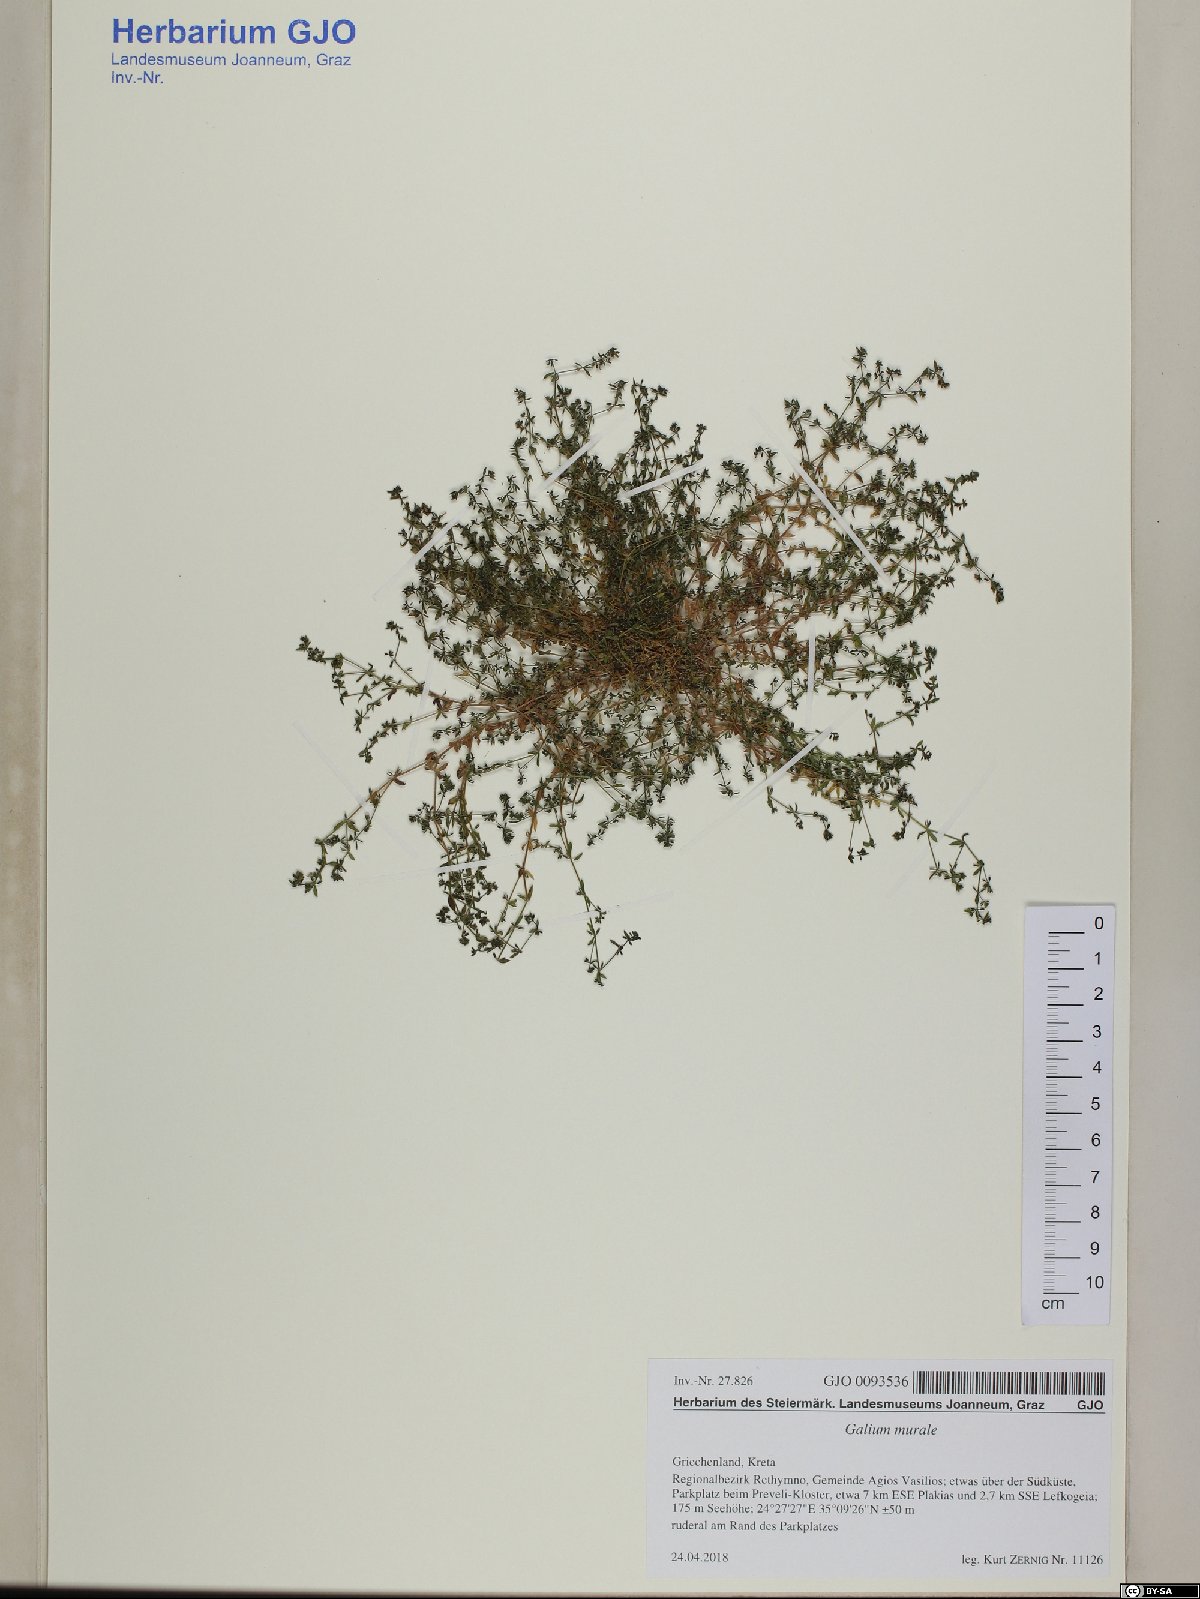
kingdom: Plantae
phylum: Tracheophyta
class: Magnoliopsida
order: Gentianales
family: Rubiaceae
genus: Galium
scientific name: Galium murale
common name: Yellow wall bedstraw
